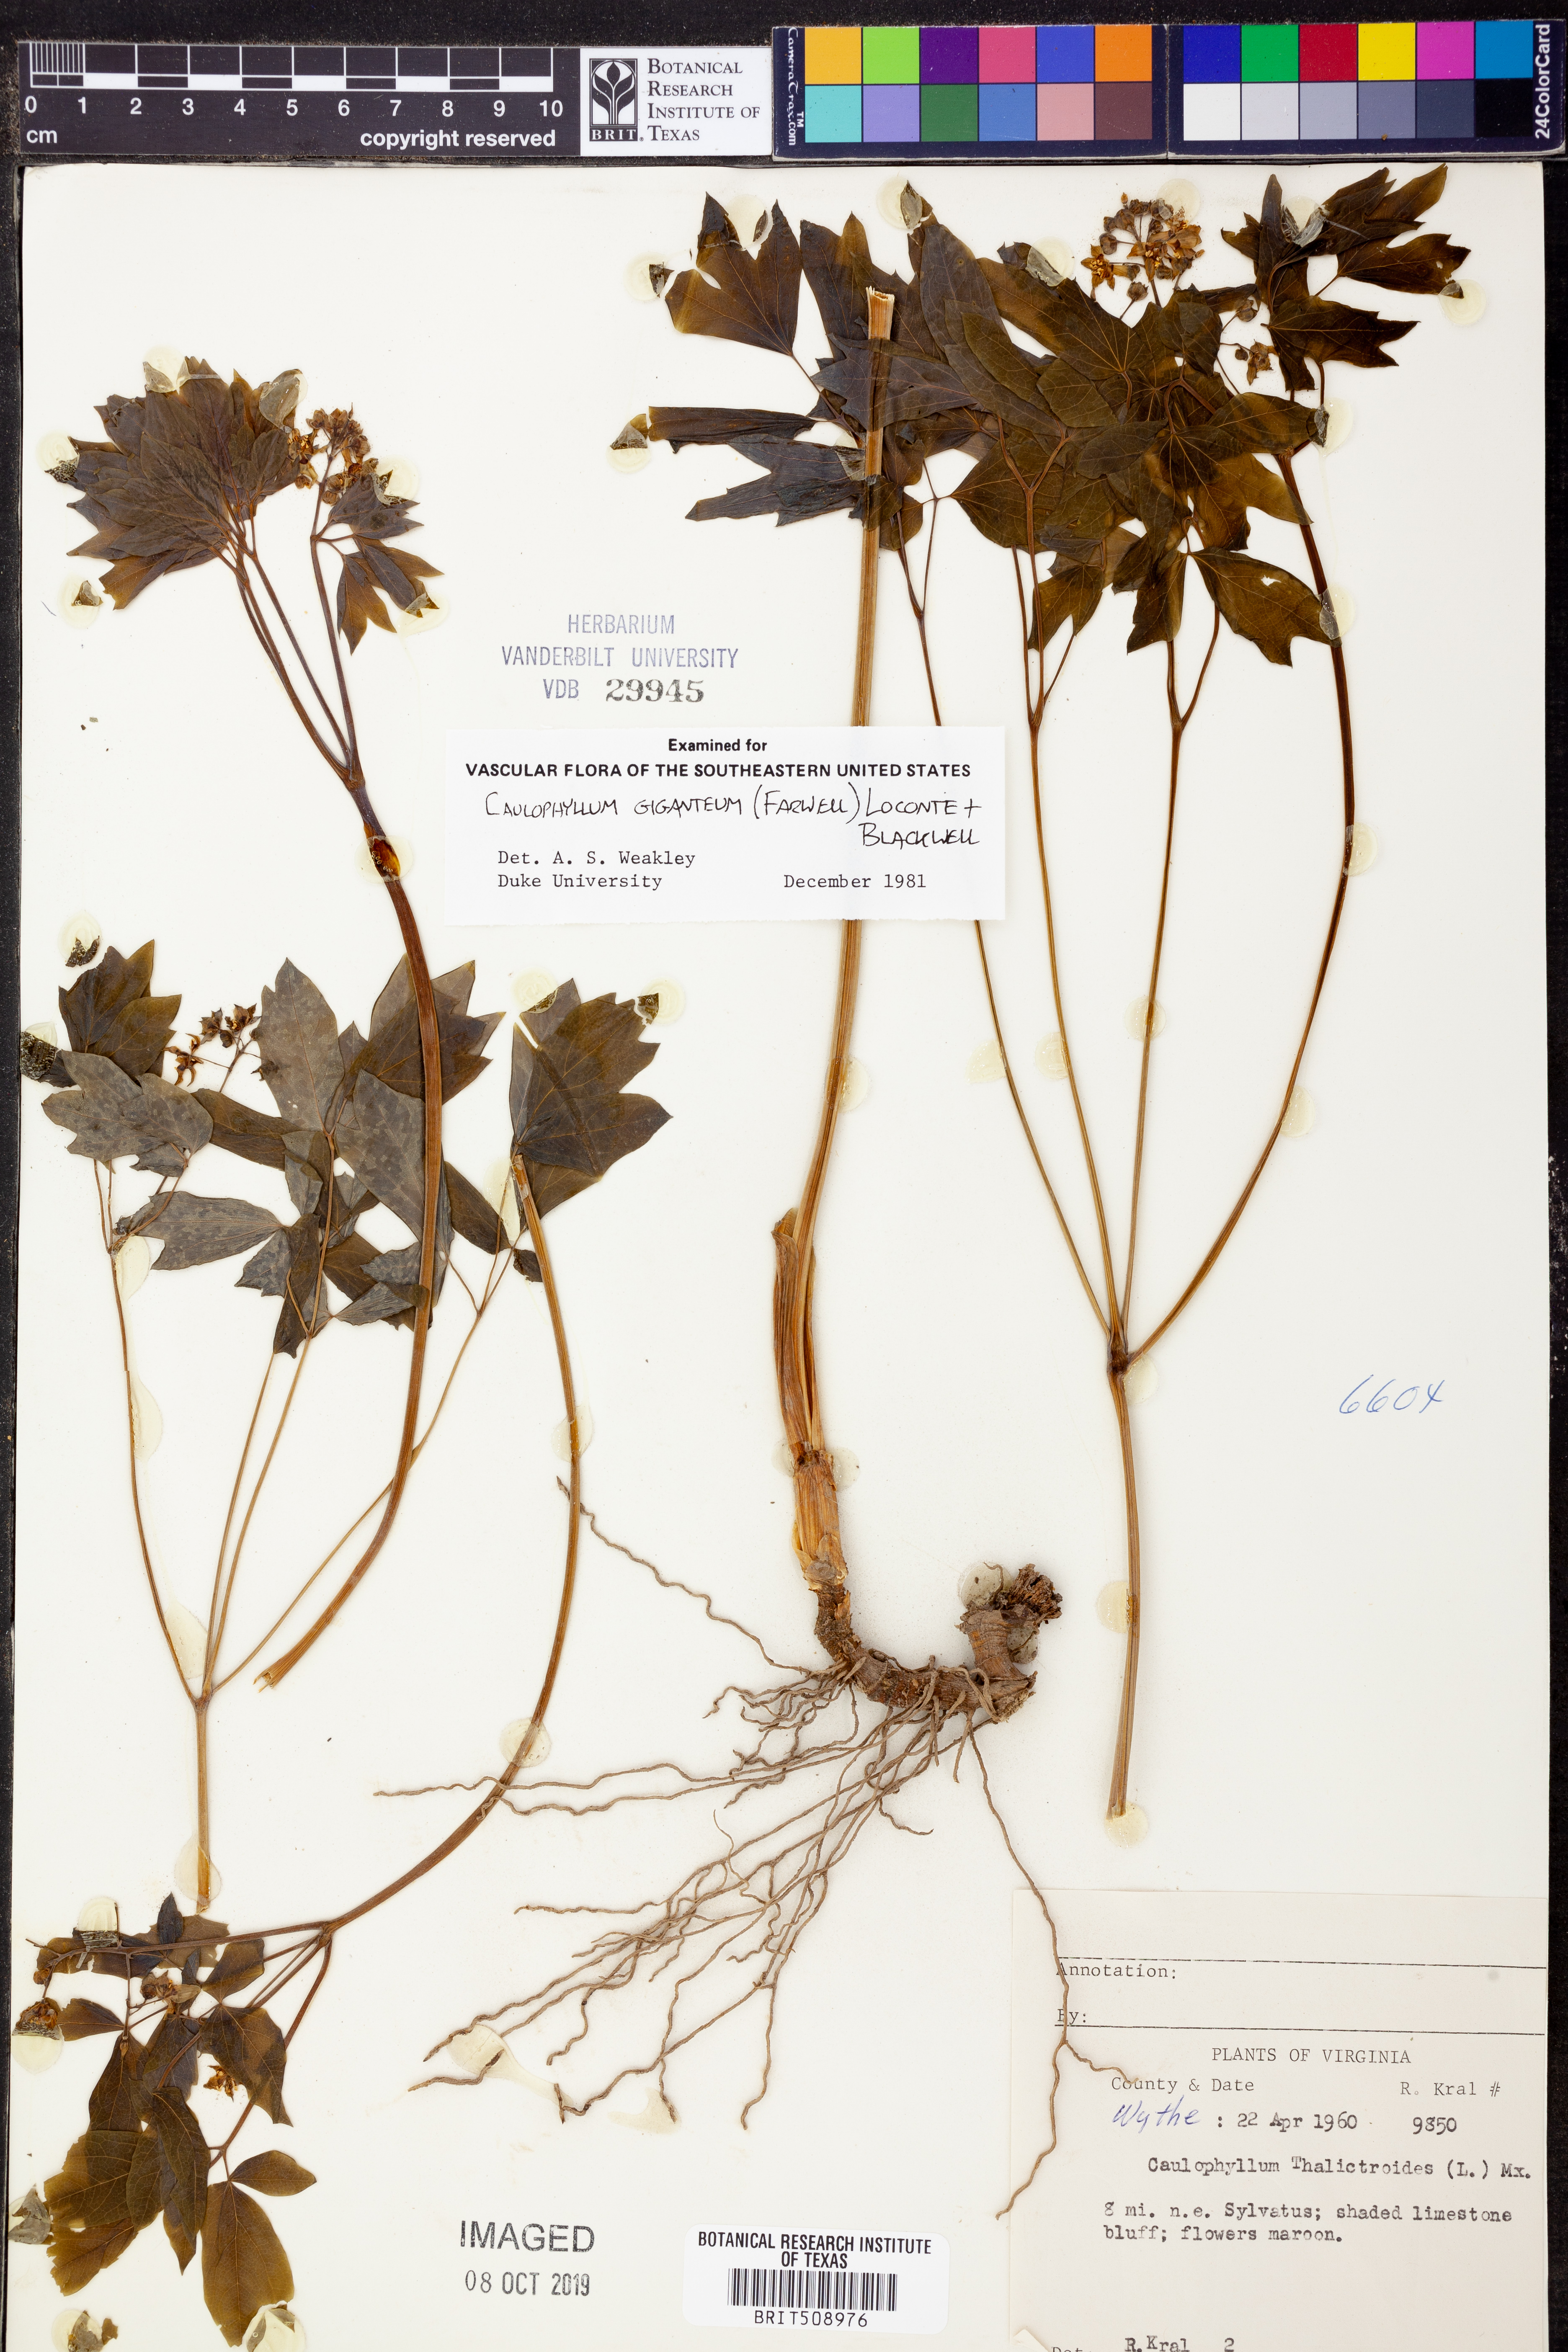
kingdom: Plantae
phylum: Tracheophyta
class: Magnoliopsida
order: Ranunculales
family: Berberidaceae
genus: Caulophyllum
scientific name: Caulophyllum giganteum
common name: Blue cohosh
